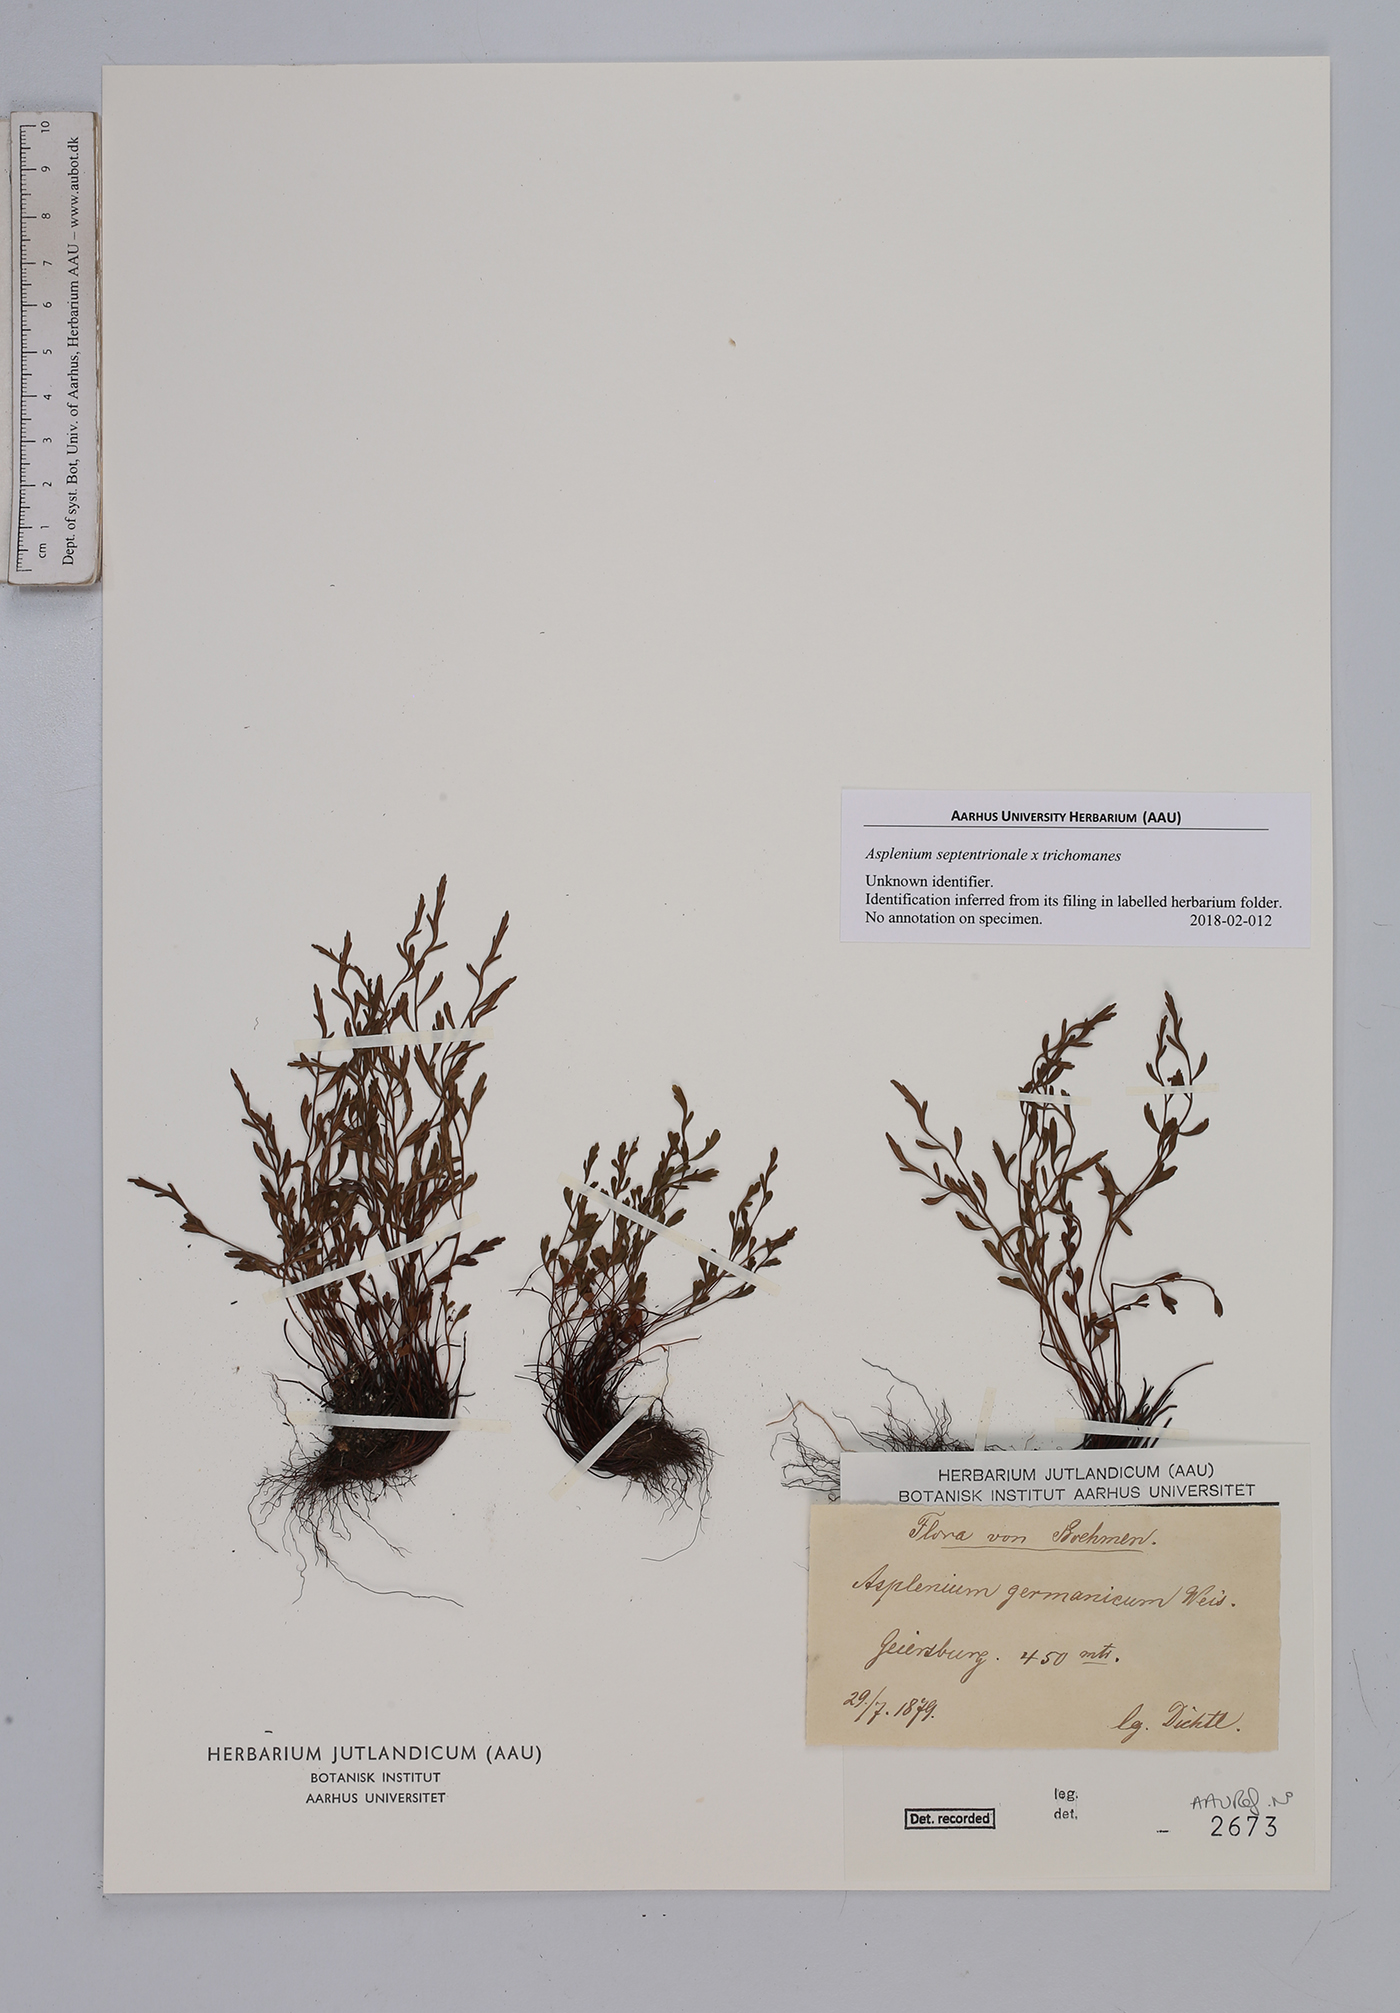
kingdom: Plantae
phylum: Tracheophyta
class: Polypodiopsida
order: Polypodiales
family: Aspleniaceae
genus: Asplenium
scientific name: Asplenium
